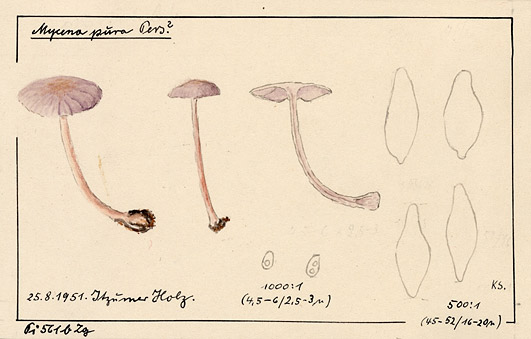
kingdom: Fungi
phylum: Basidiomycota
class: Agaricomycetes
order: Agaricales
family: Mycenaceae
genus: Mycena
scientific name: Mycena pura
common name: Lilac bonnet
